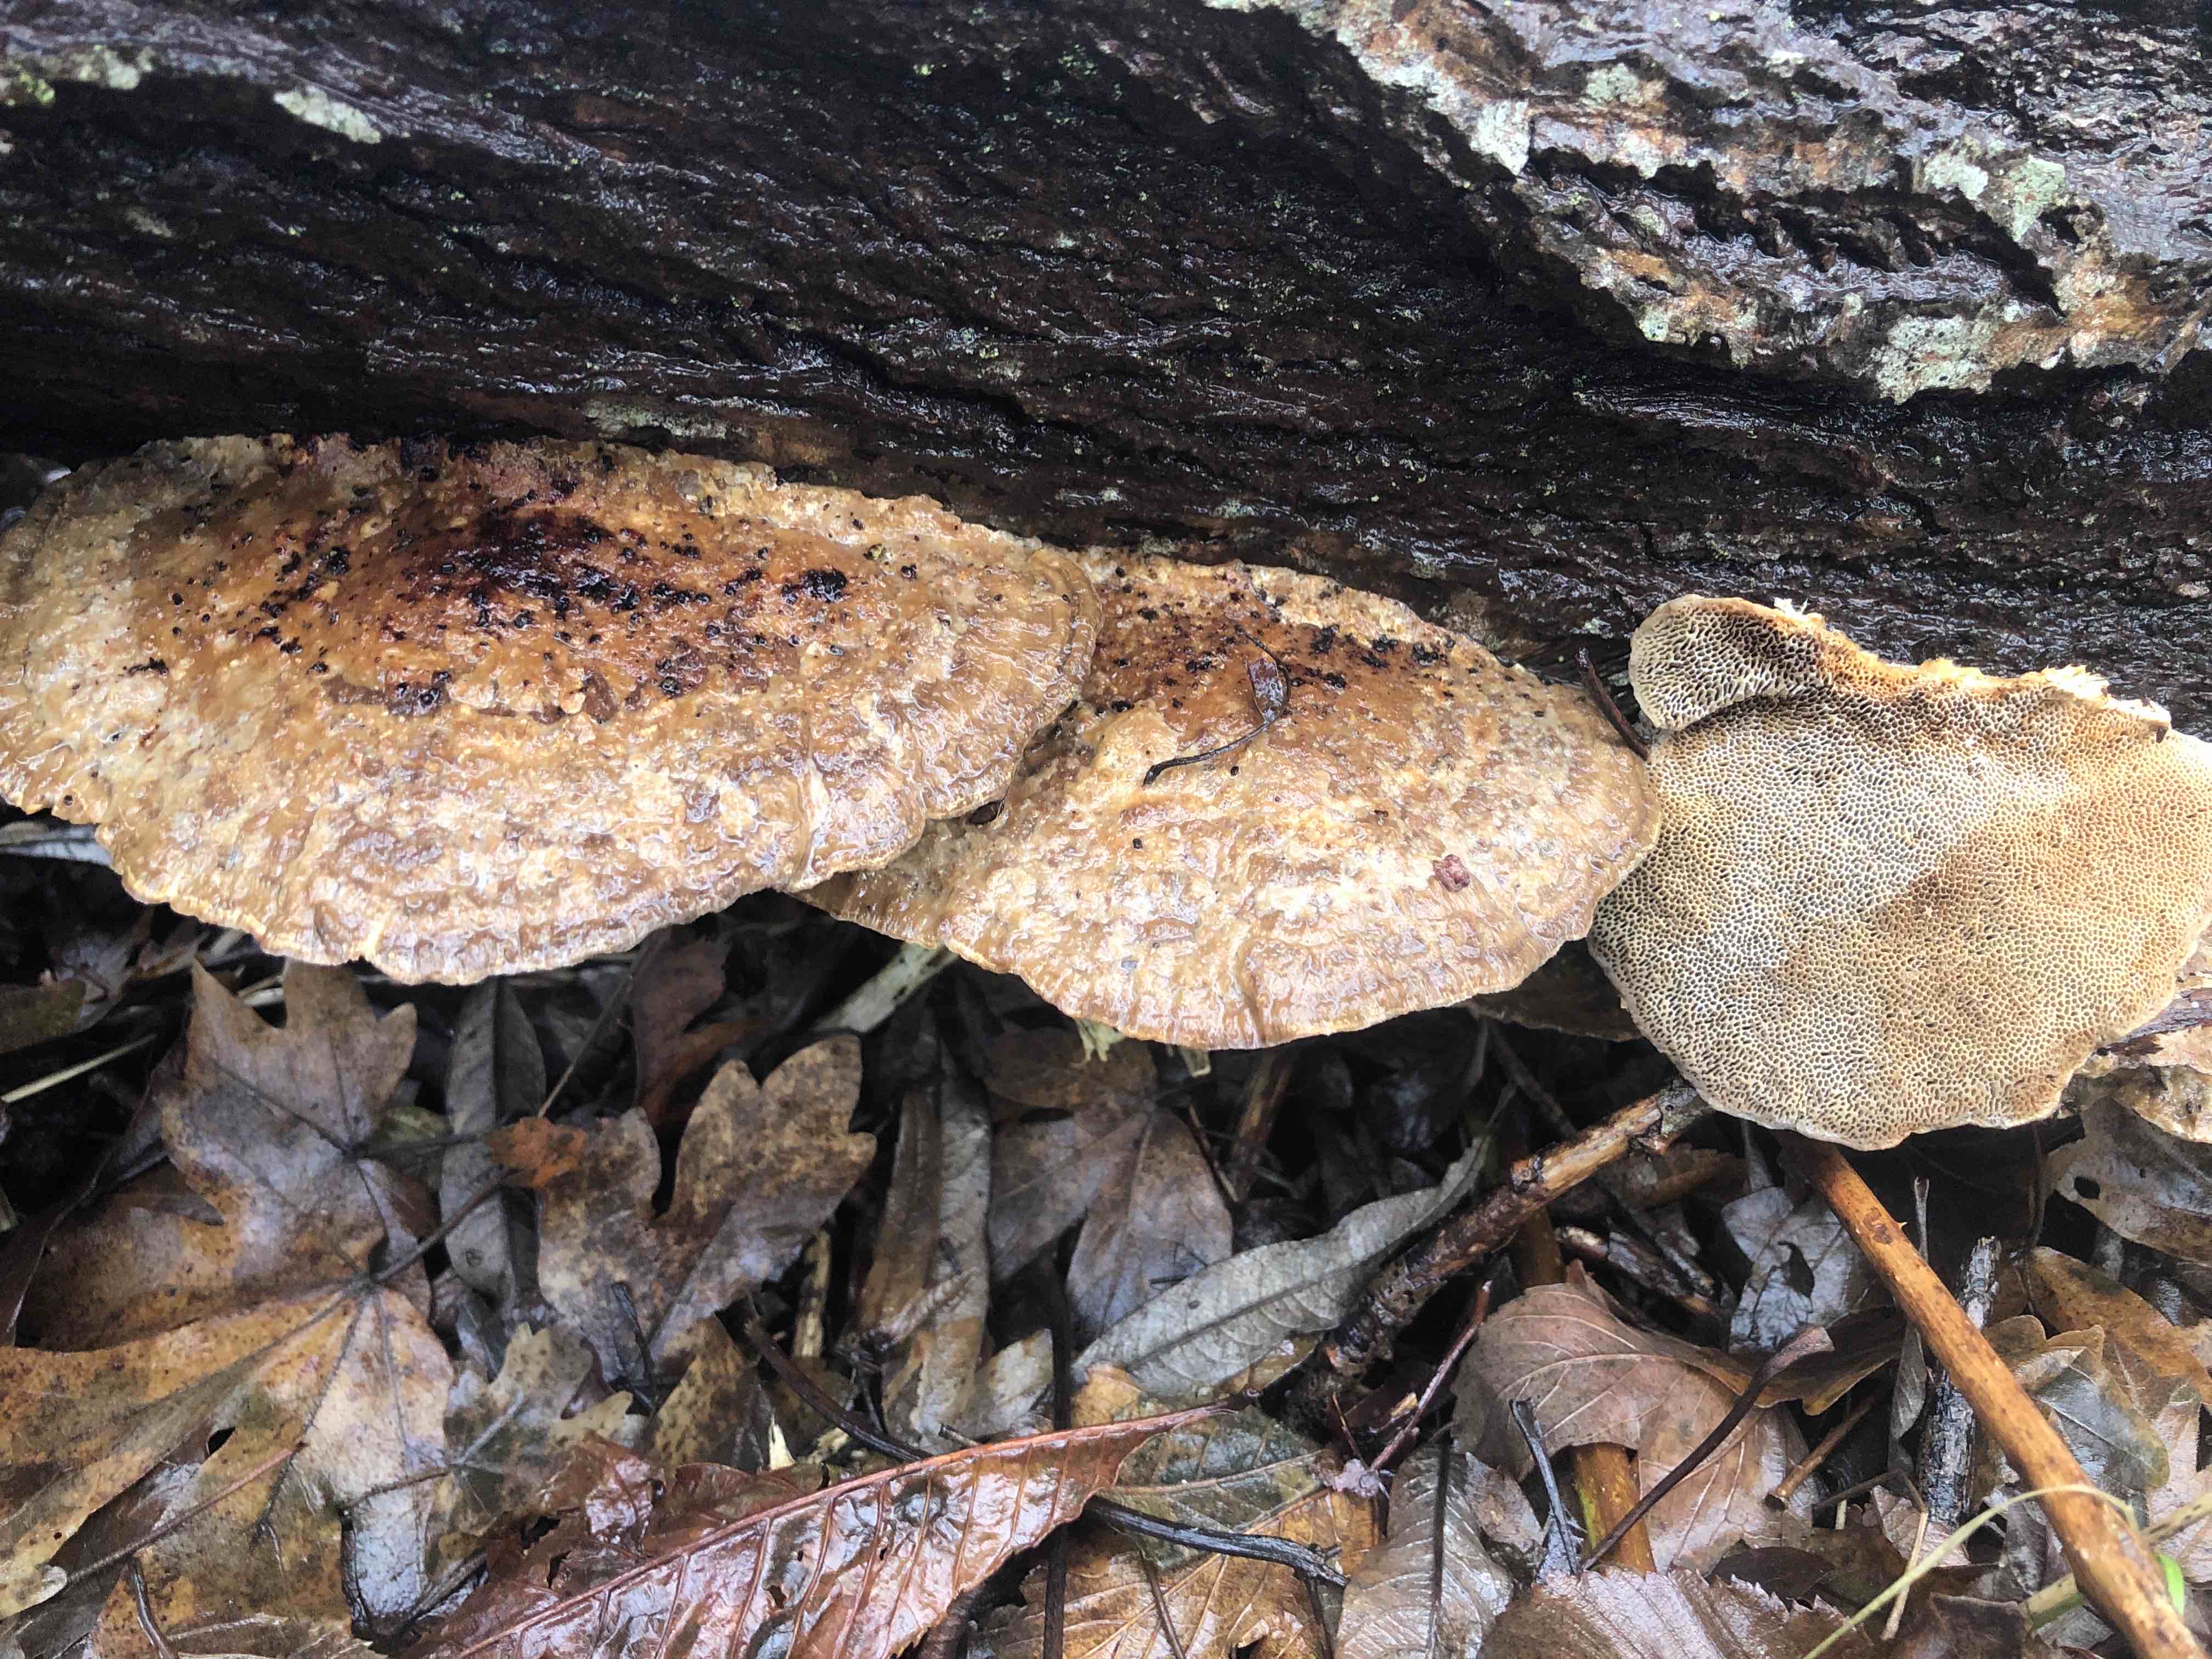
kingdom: Fungi
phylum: Basidiomycota
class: Agaricomycetes
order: Polyporales
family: Polyporaceae
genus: Daedaleopsis
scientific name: Daedaleopsis confragosa
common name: rødmende læderporesvamp
